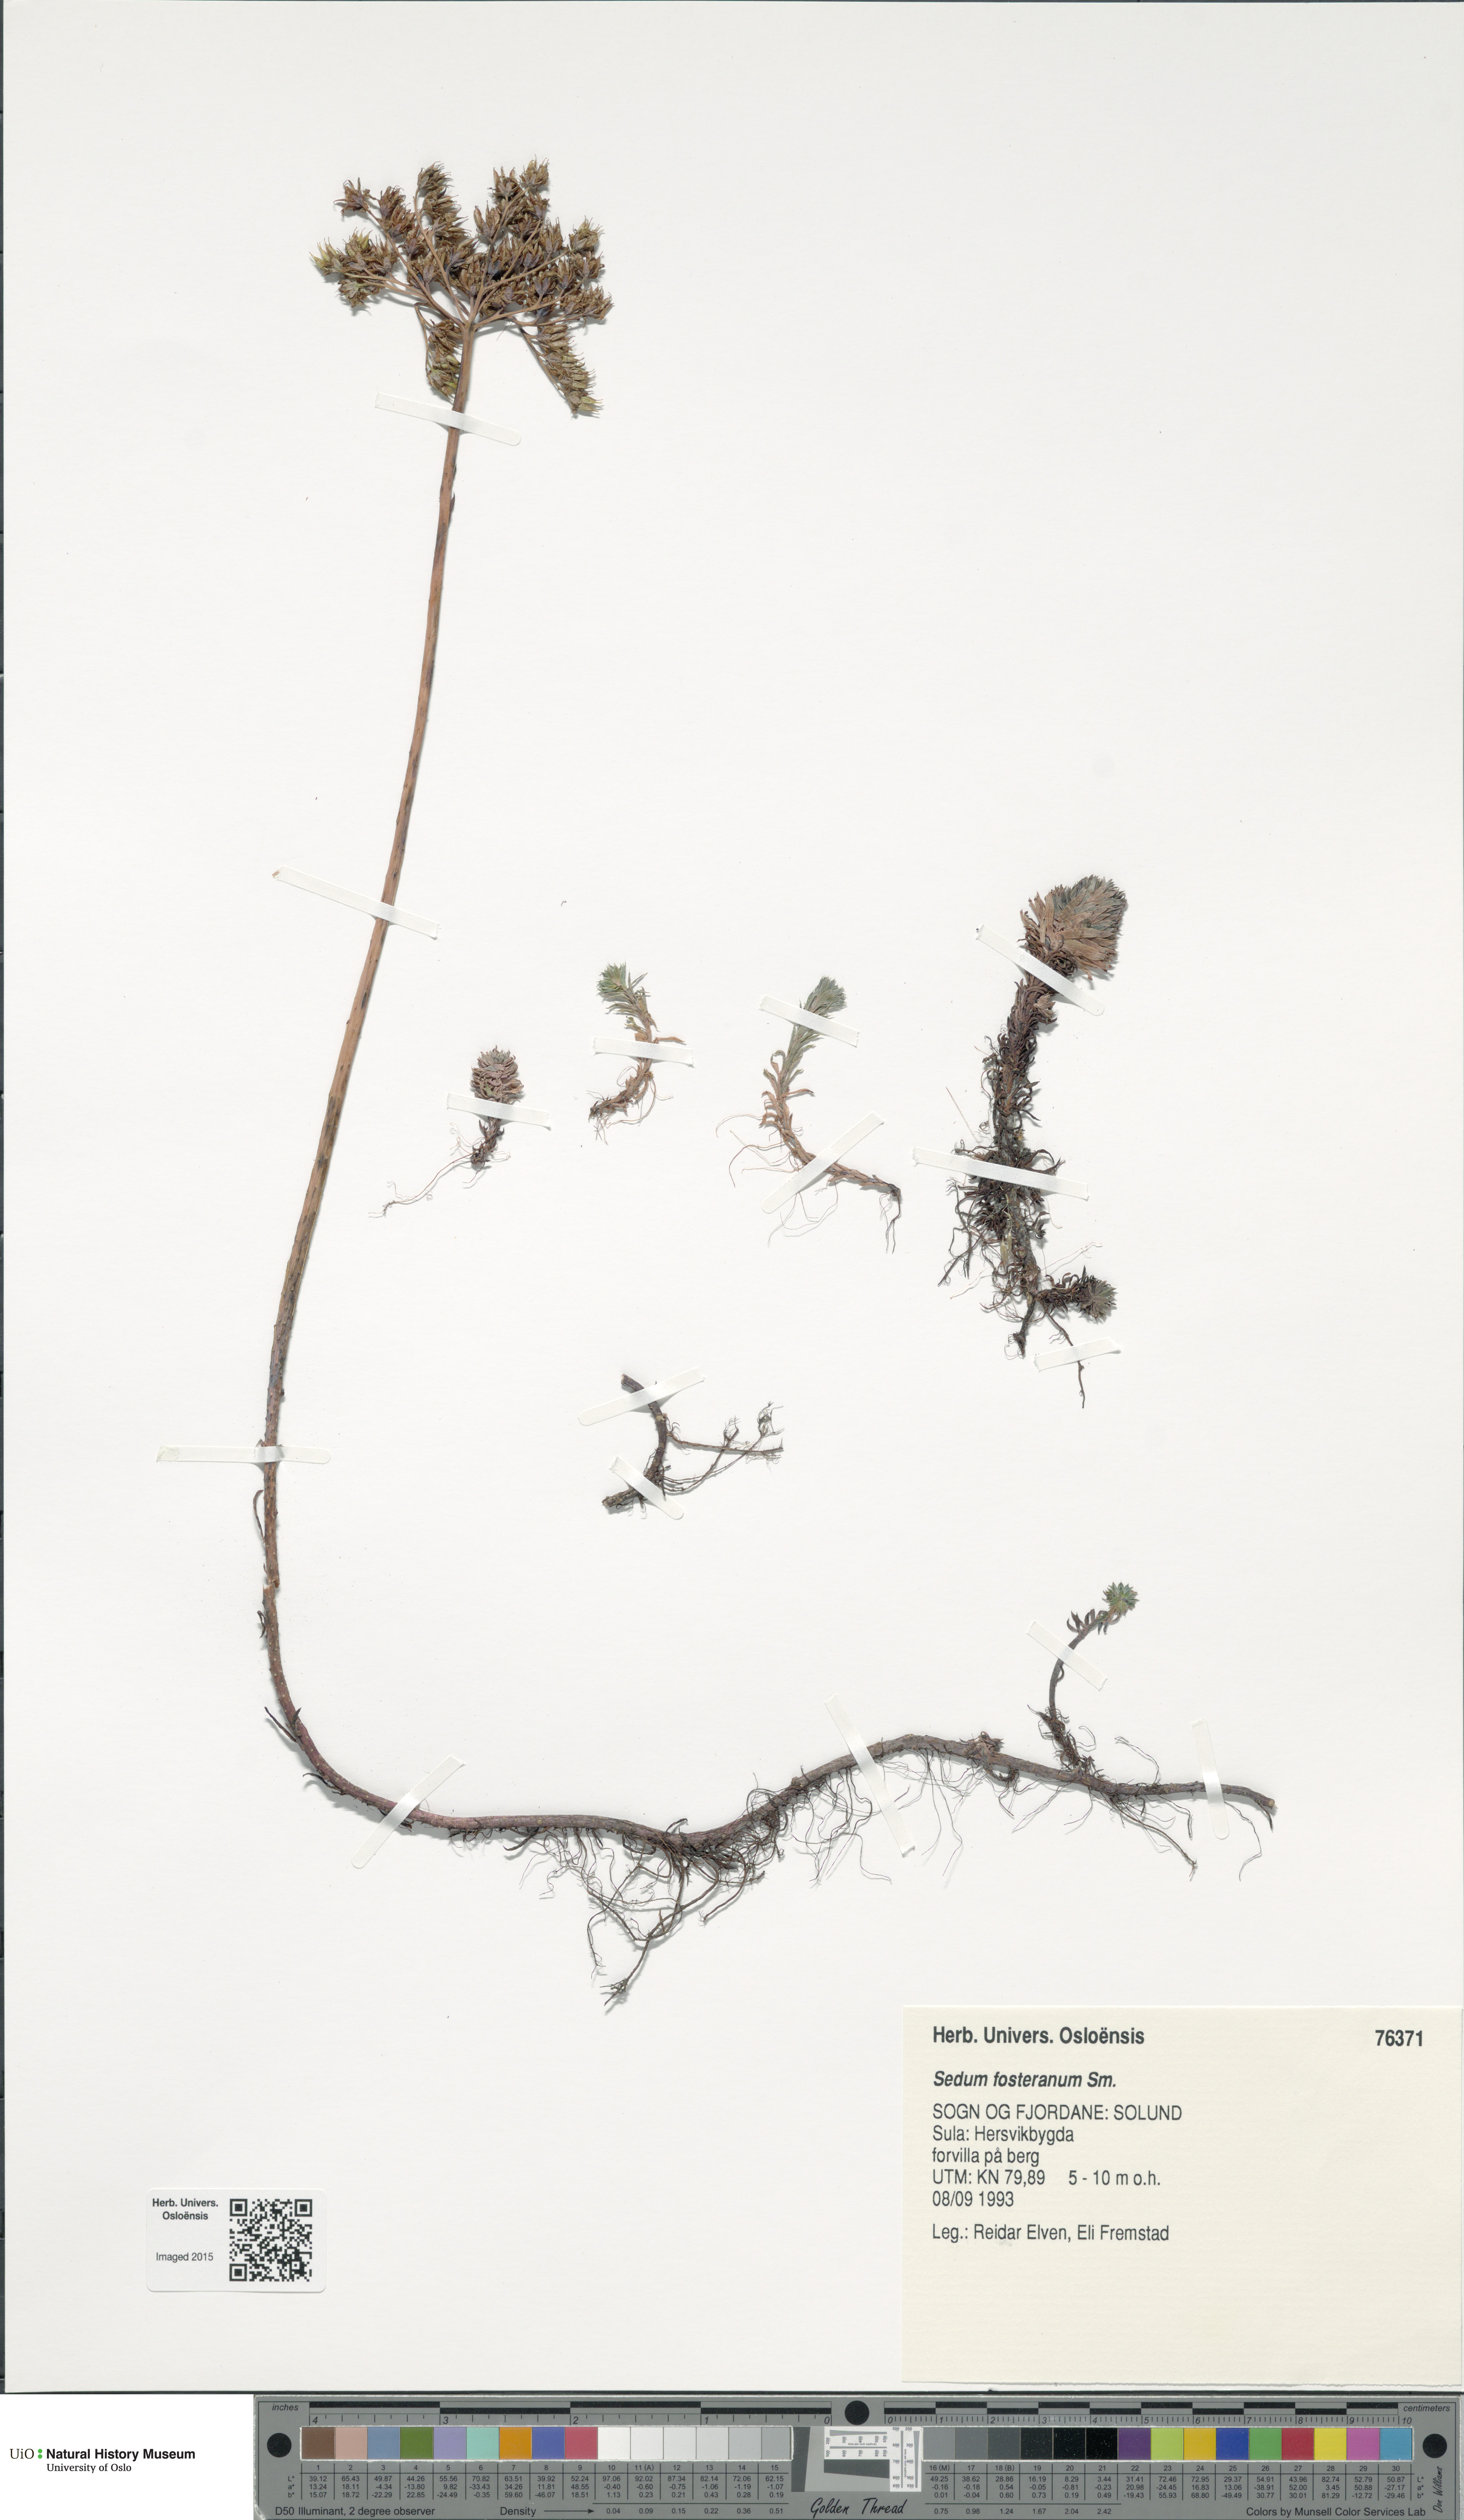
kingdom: Plantae
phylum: Tracheophyta
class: Magnoliopsida
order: Saxifragales
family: Crassulaceae
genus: Petrosedum
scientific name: Petrosedum forsterianum
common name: Forster's stonecrop
